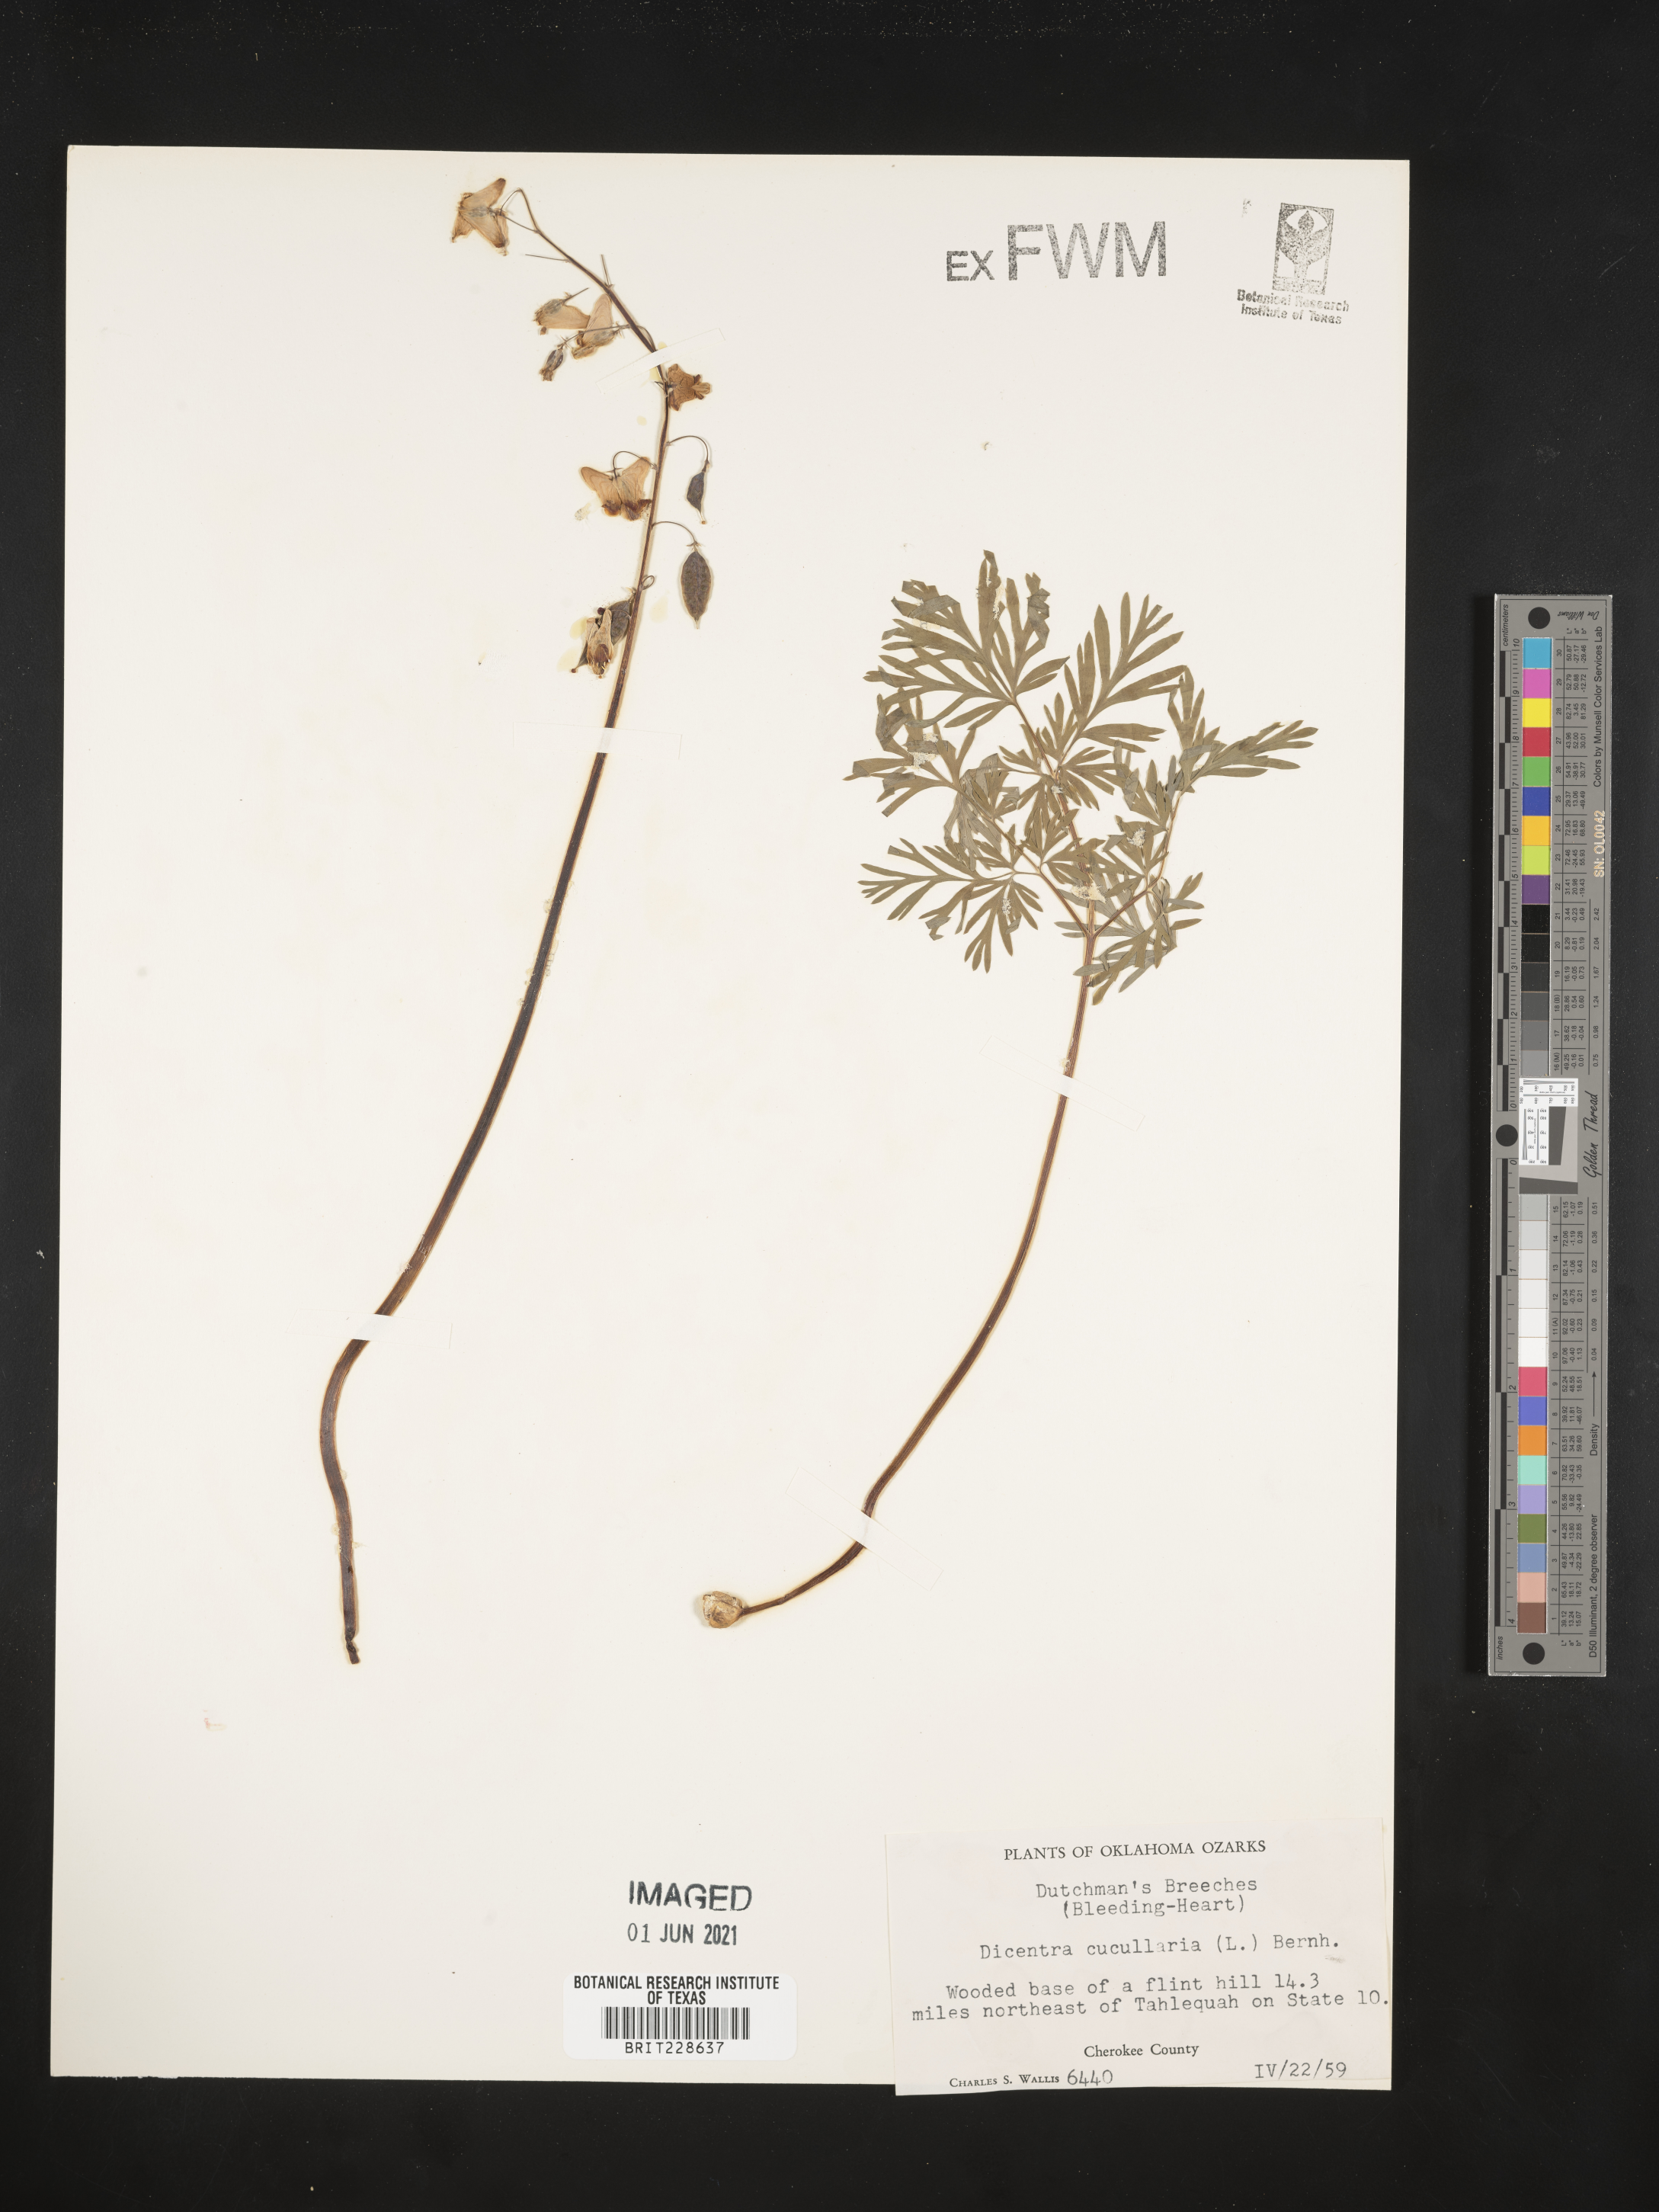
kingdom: Plantae
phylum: Tracheophyta
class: Magnoliopsida
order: Ranunculales
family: Papaveraceae
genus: Dicentra
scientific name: Dicentra cucullaria
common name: Dutchman's breeches
